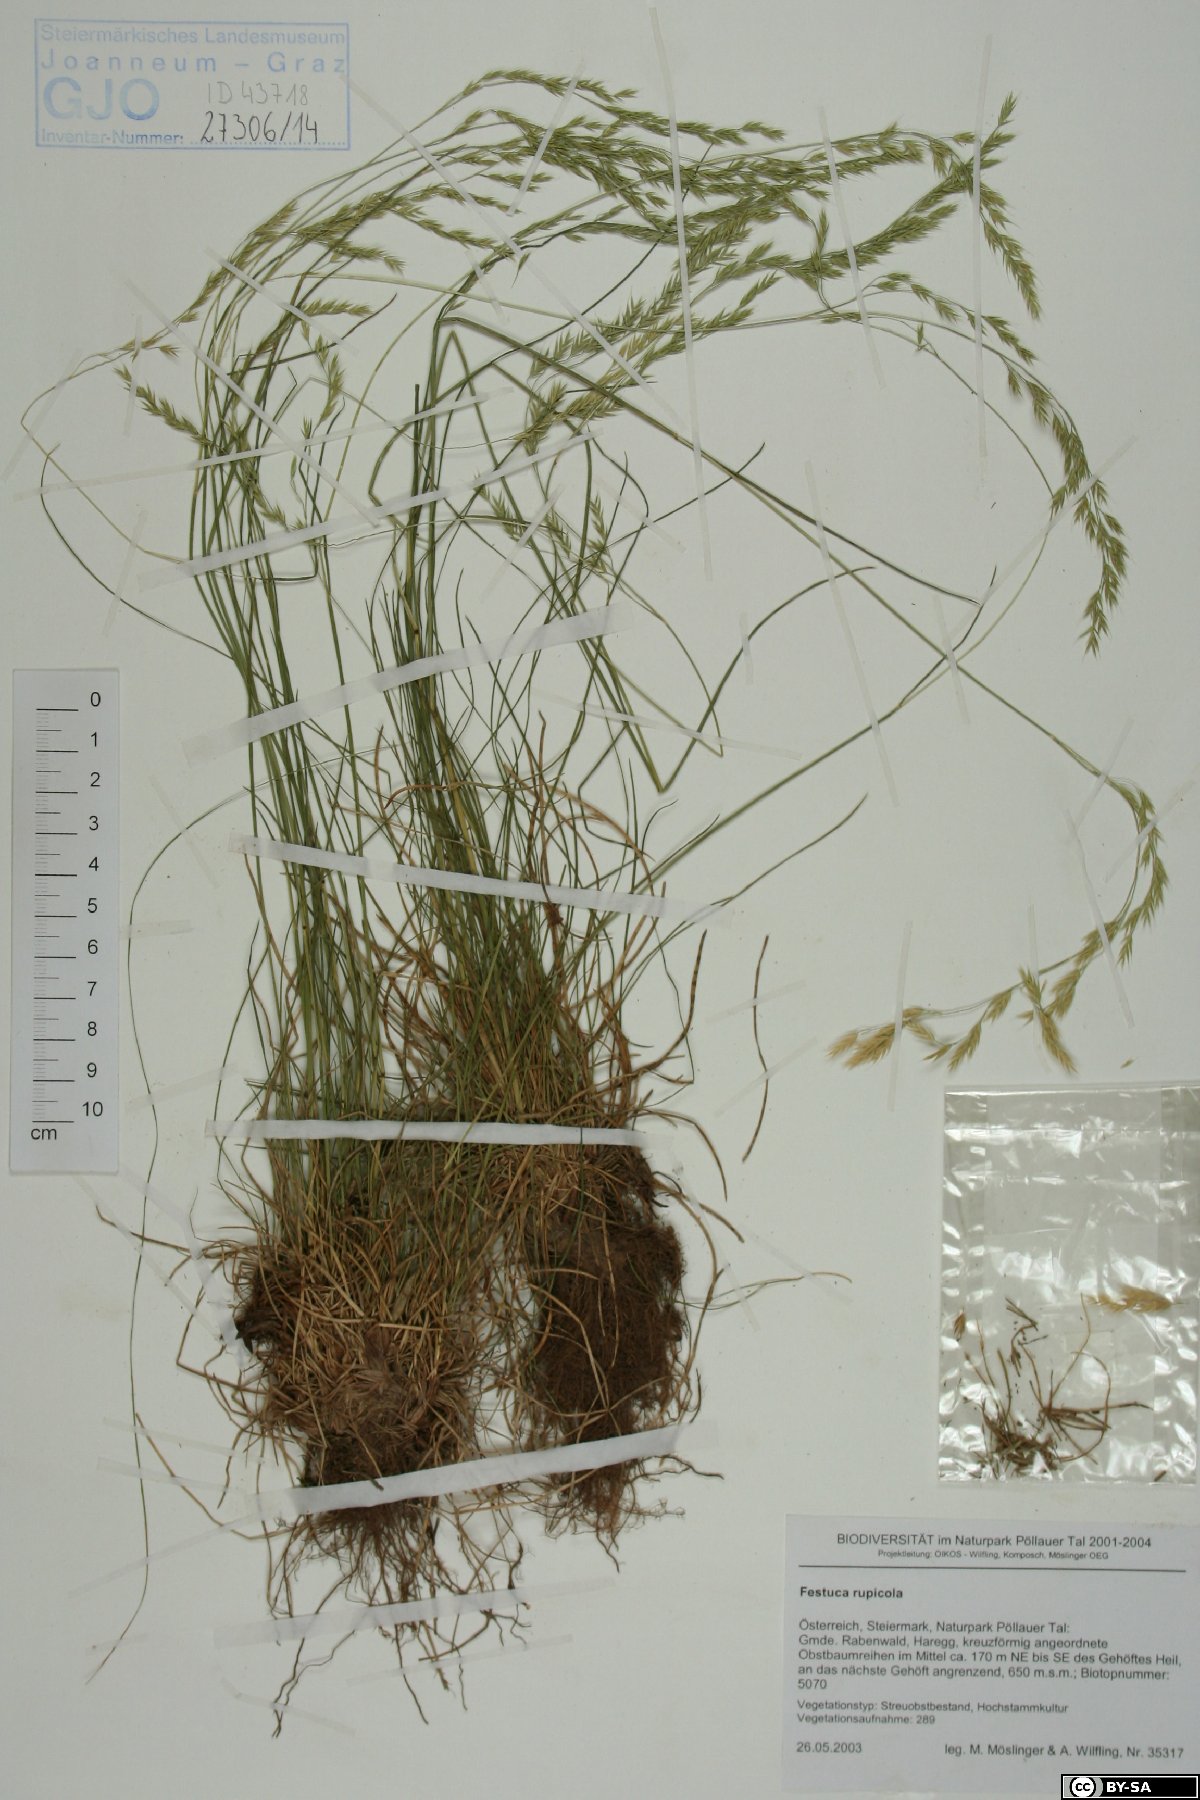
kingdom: Plantae
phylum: Tracheophyta
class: Liliopsida
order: Poales
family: Poaceae
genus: Festuca
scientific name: Festuca rupicola
